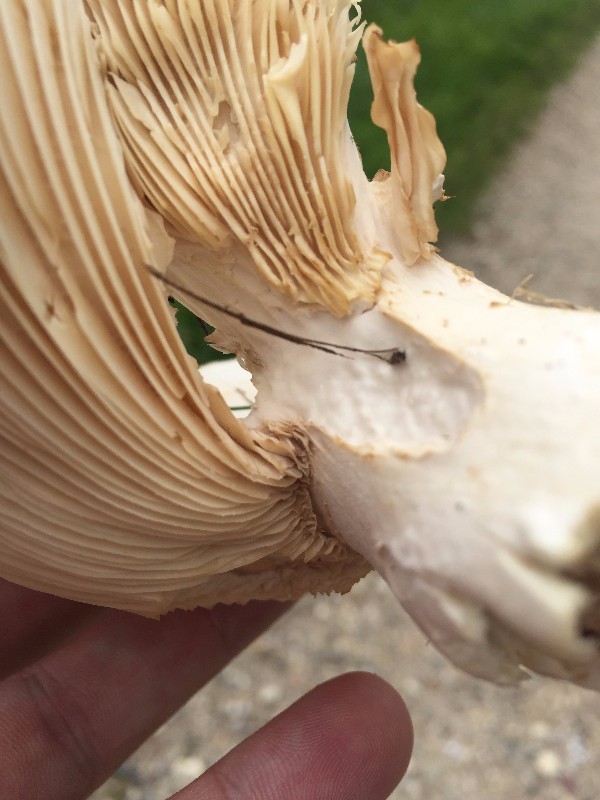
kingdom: Fungi
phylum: Basidiomycota
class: Agaricomycetes
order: Agaricales
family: Tricholomataceae
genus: Aspropaxillus
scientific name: Aspropaxillus giganteus
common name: kæmpe-tragtridderhat
